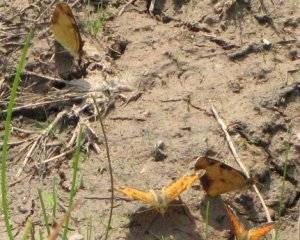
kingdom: Animalia
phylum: Arthropoda
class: Insecta
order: Lepidoptera
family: Nymphalidae
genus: Phyciodes
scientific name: Phyciodes tharos
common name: Northern Crescent
